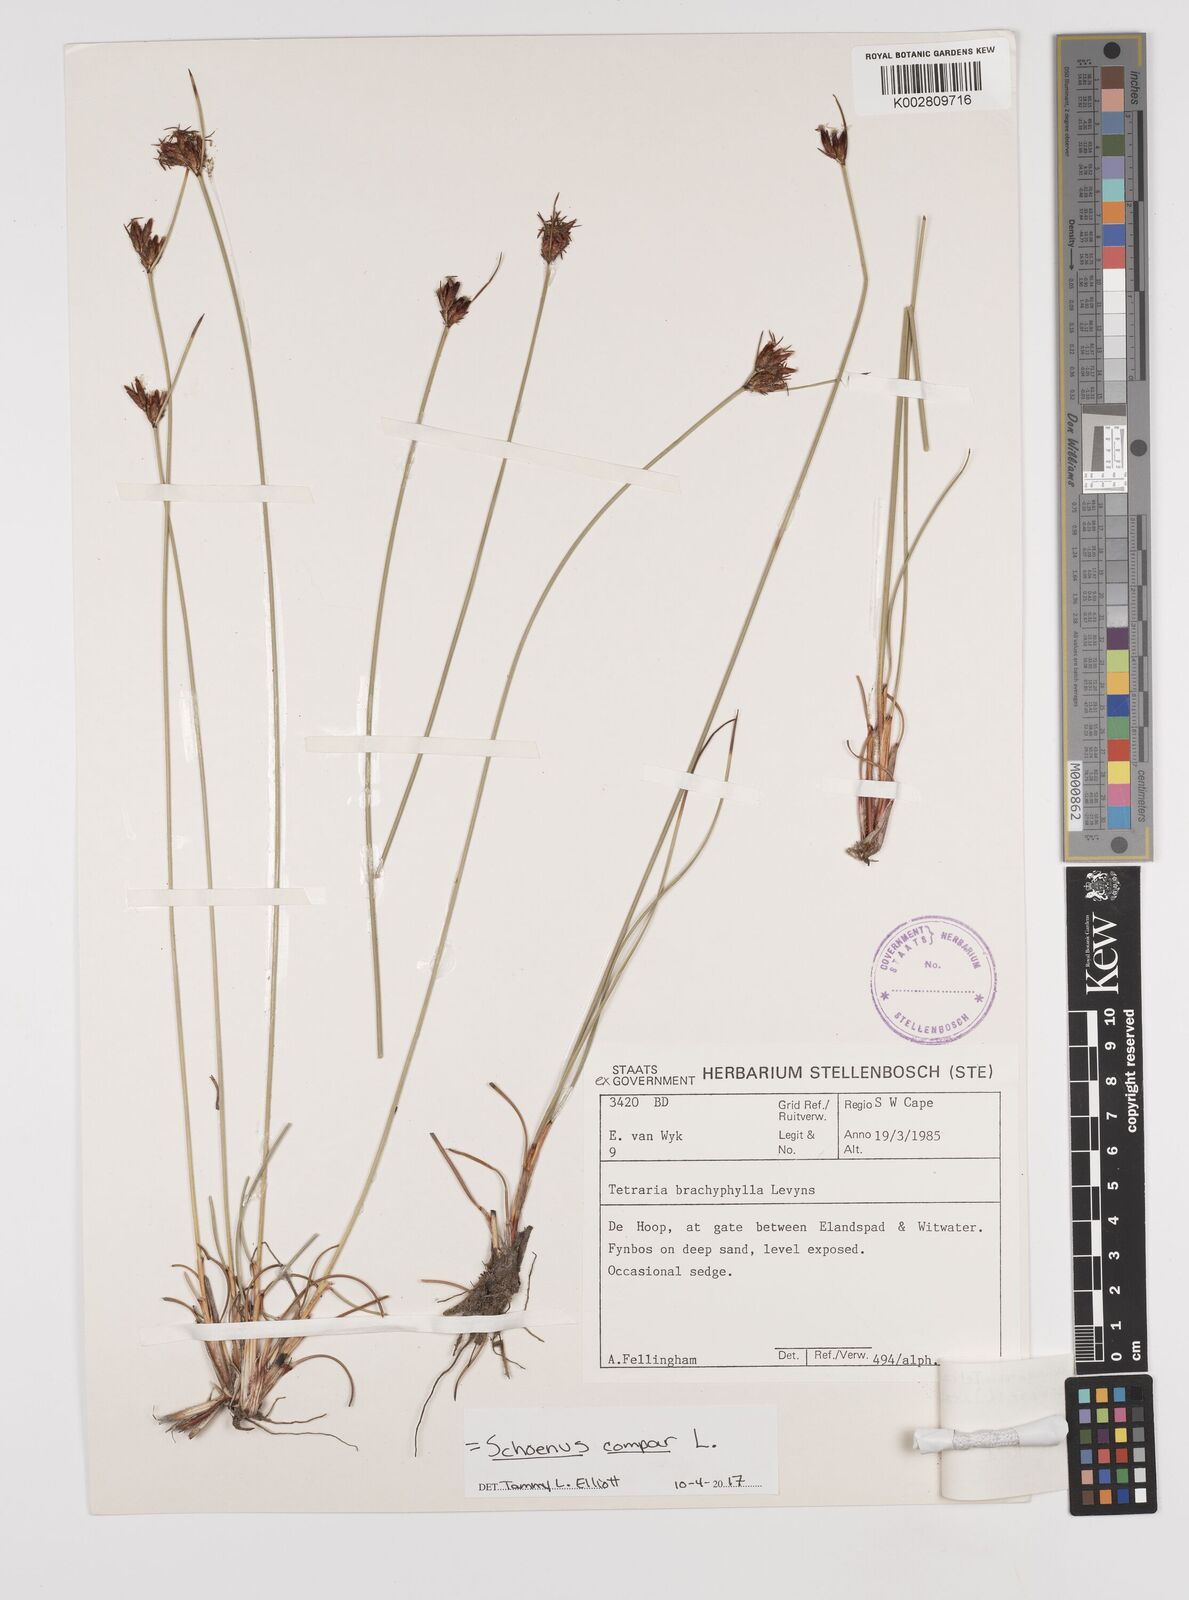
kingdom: Plantae
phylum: Tracheophyta
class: Liliopsida
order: Poales
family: Cyperaceae
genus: Schoenus
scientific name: Schoenus compar
